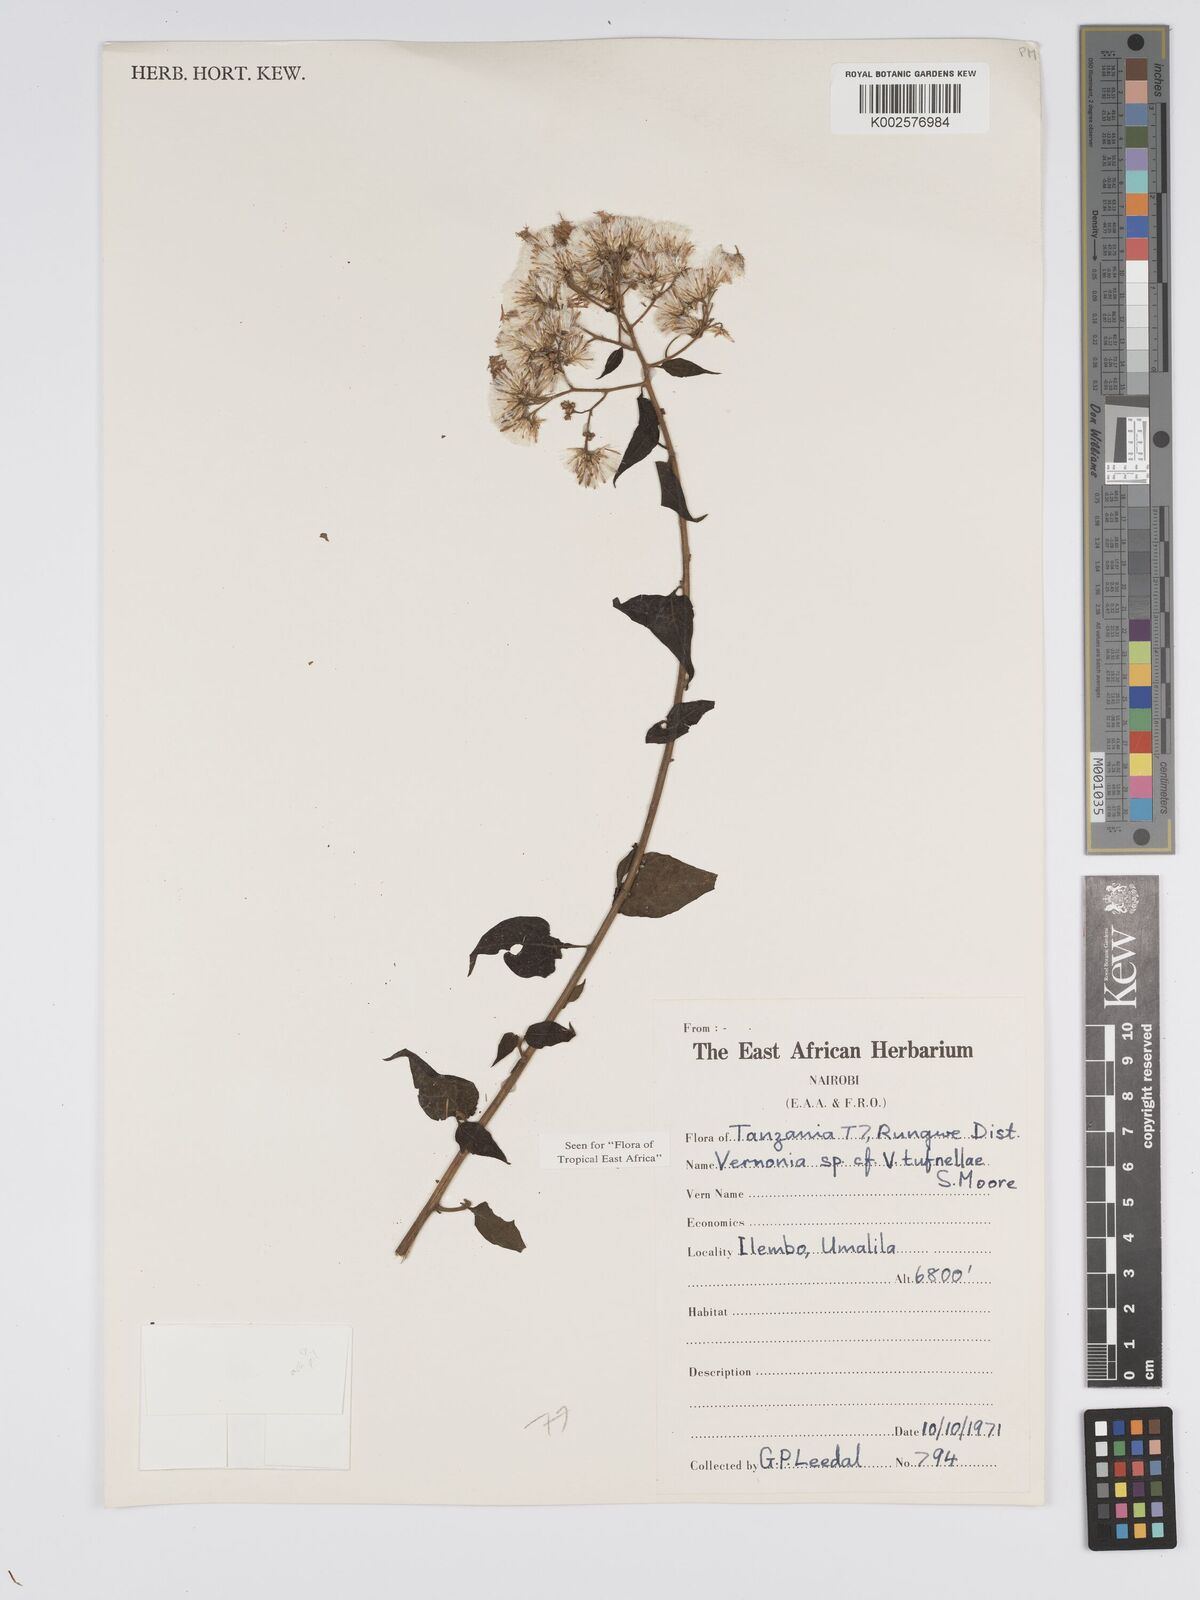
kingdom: Plantae
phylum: Tracheophyta
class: Magnoliopsida
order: Asterales
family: Asteraceae
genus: Distephanus
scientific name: Distephanus biafrae
